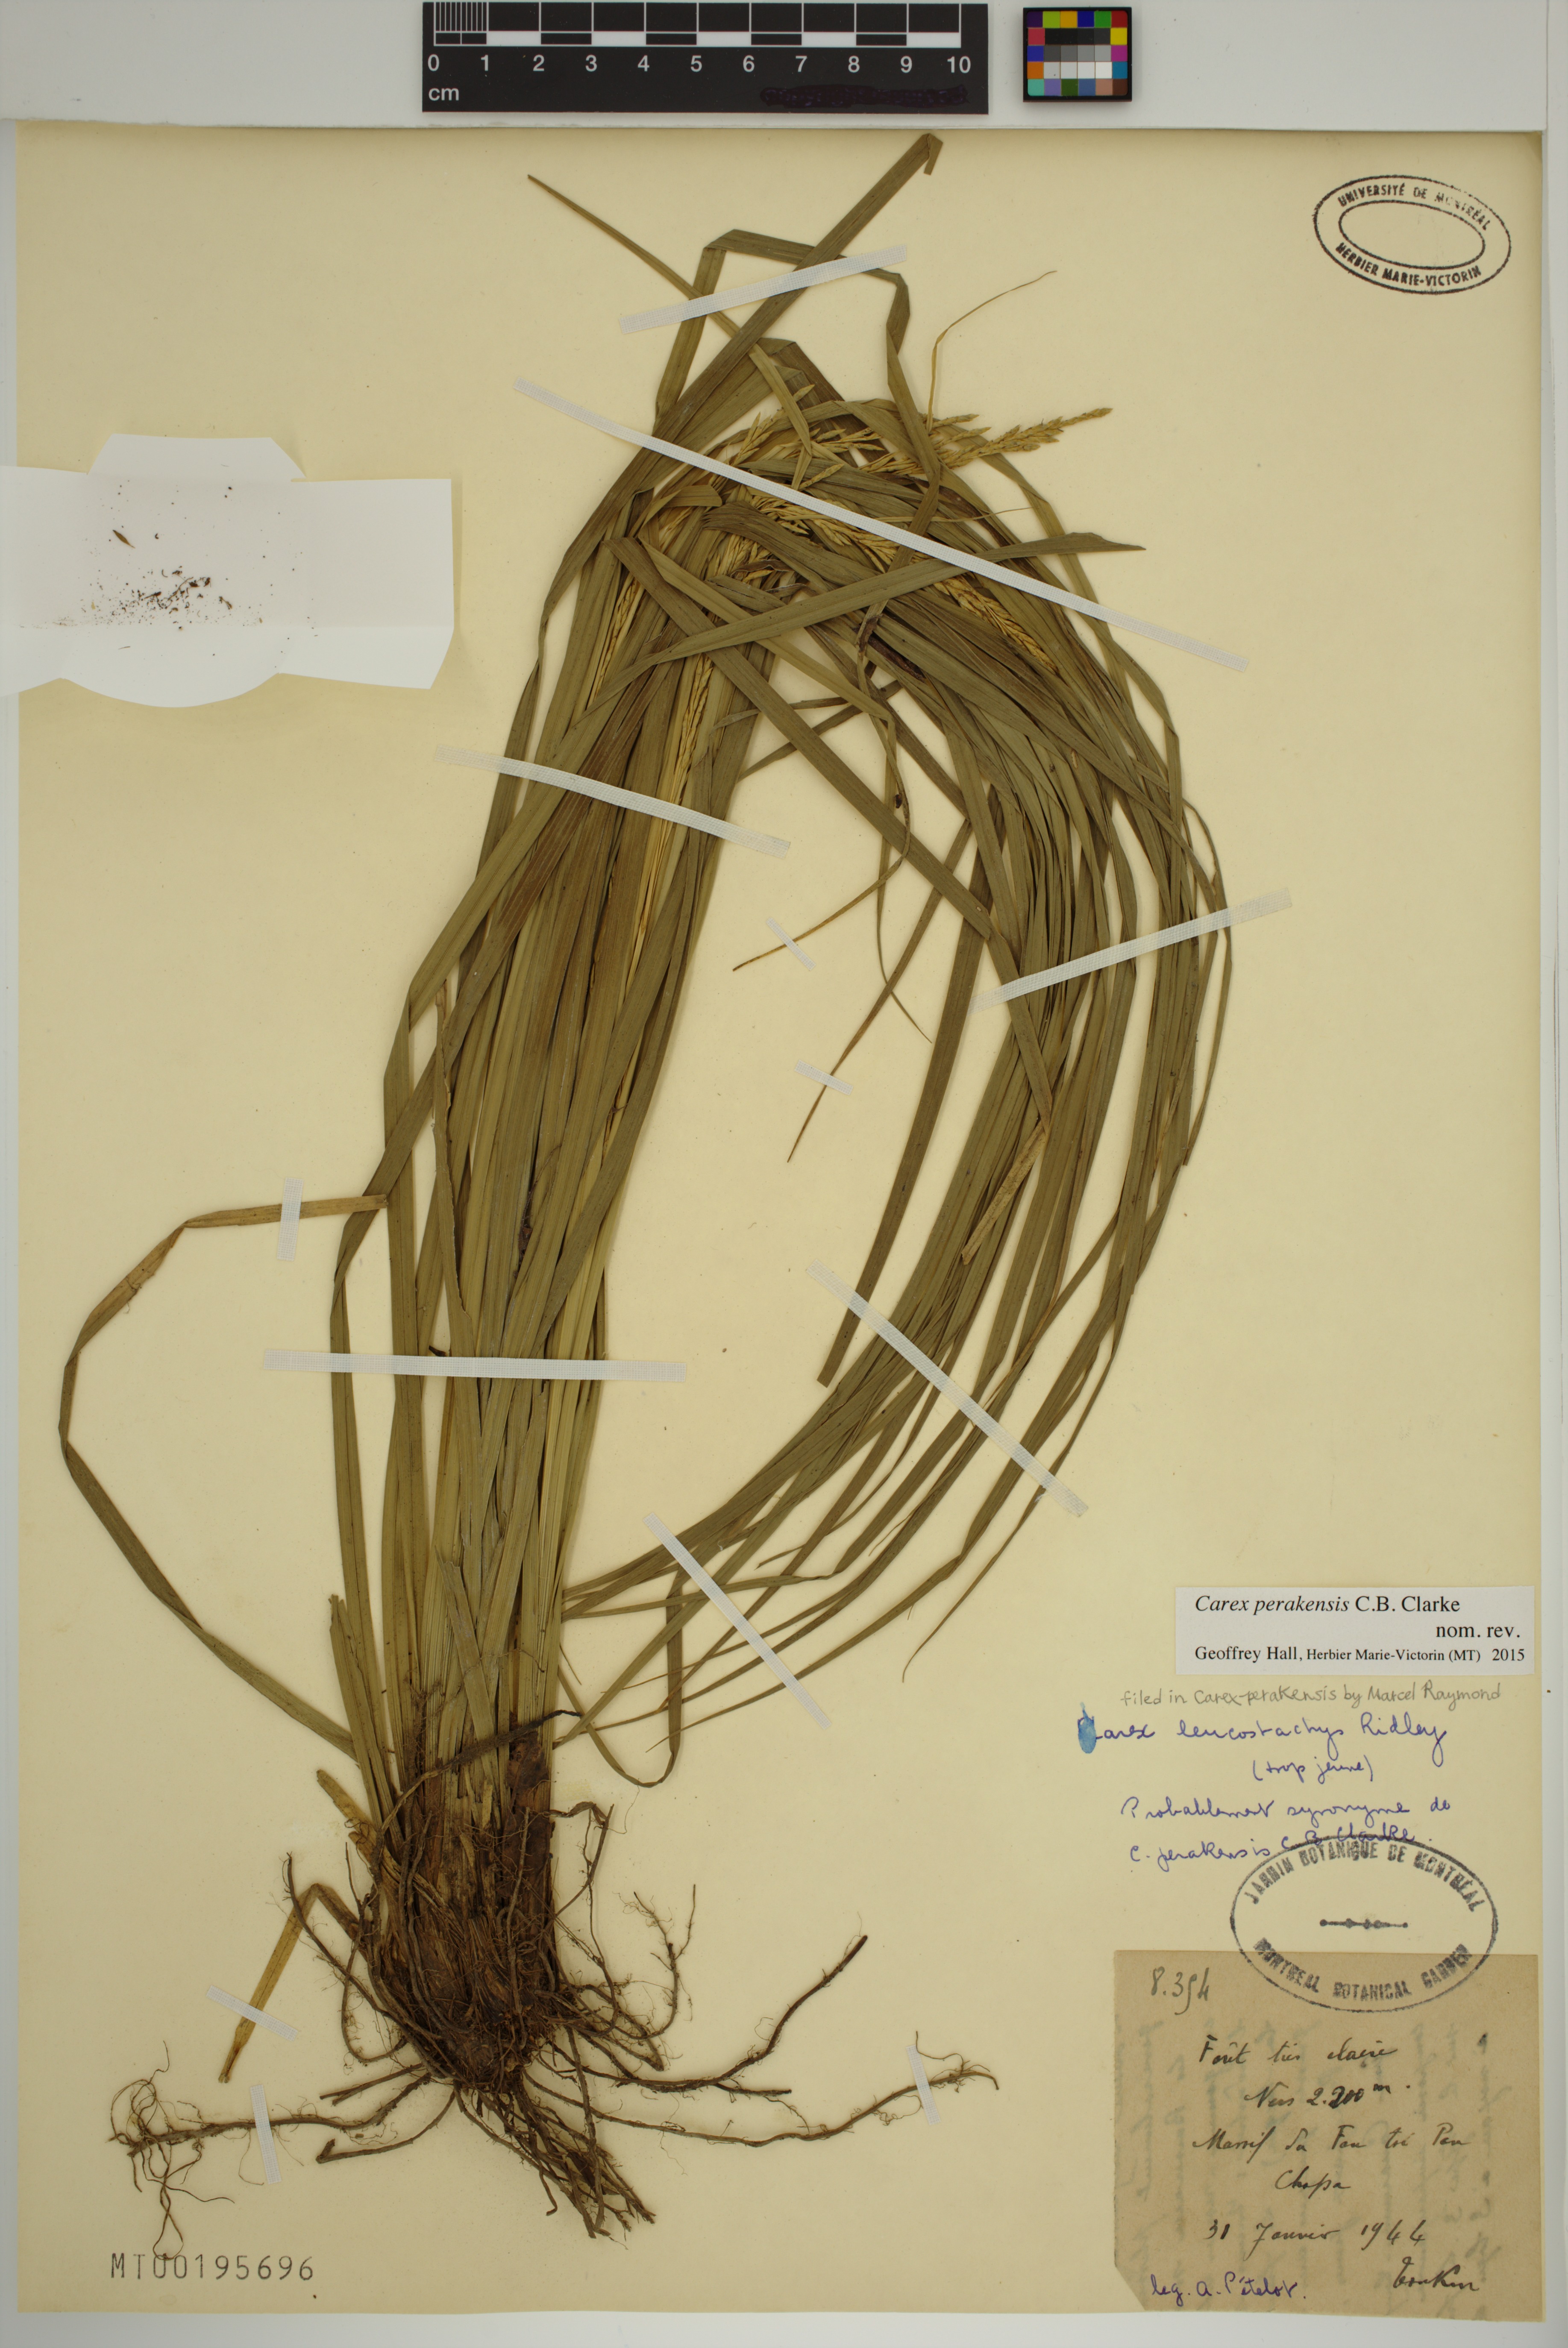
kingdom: Plantae
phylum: Tracheophyta
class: Liliopsida
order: Poales
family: Cyperaceae
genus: Carex
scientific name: Carex perakensis
